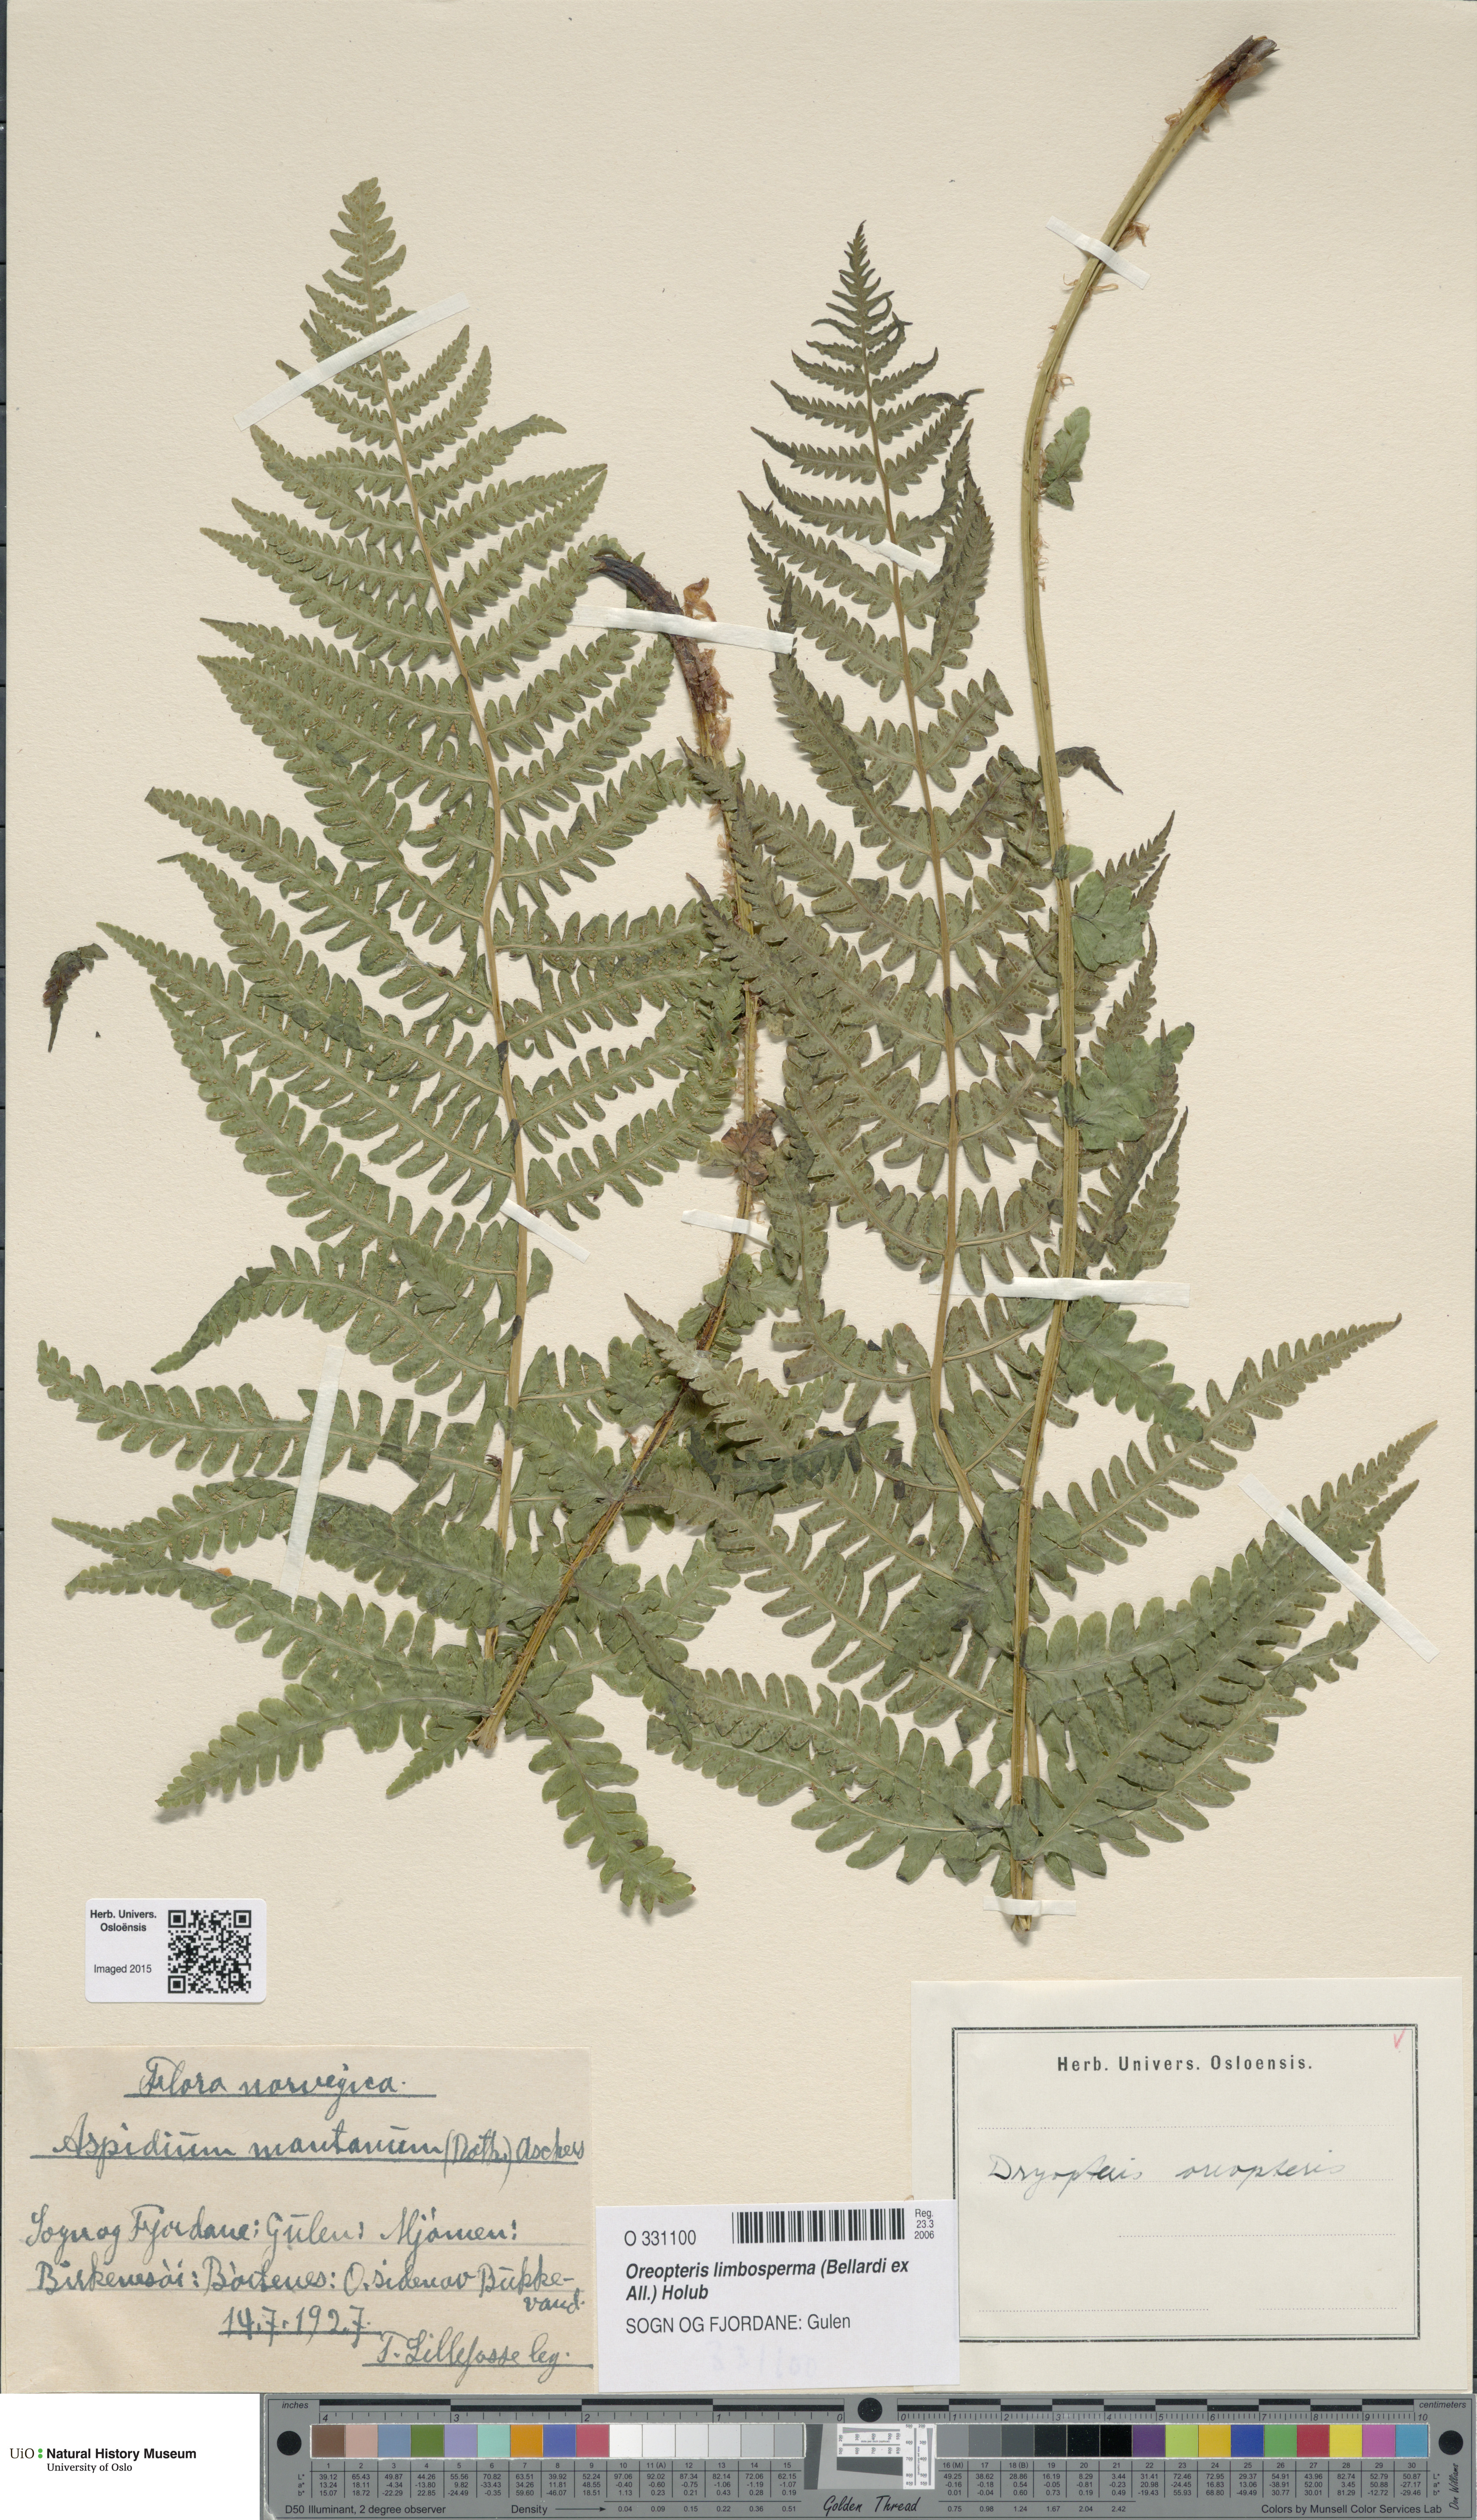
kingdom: Plantae
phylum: Tracheophyta
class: Polypodiopsida
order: Polypodiales
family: Thelypteridaceae
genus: Oreopteris
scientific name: Oreopteris limbosperma
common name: Lemon-scented fern
